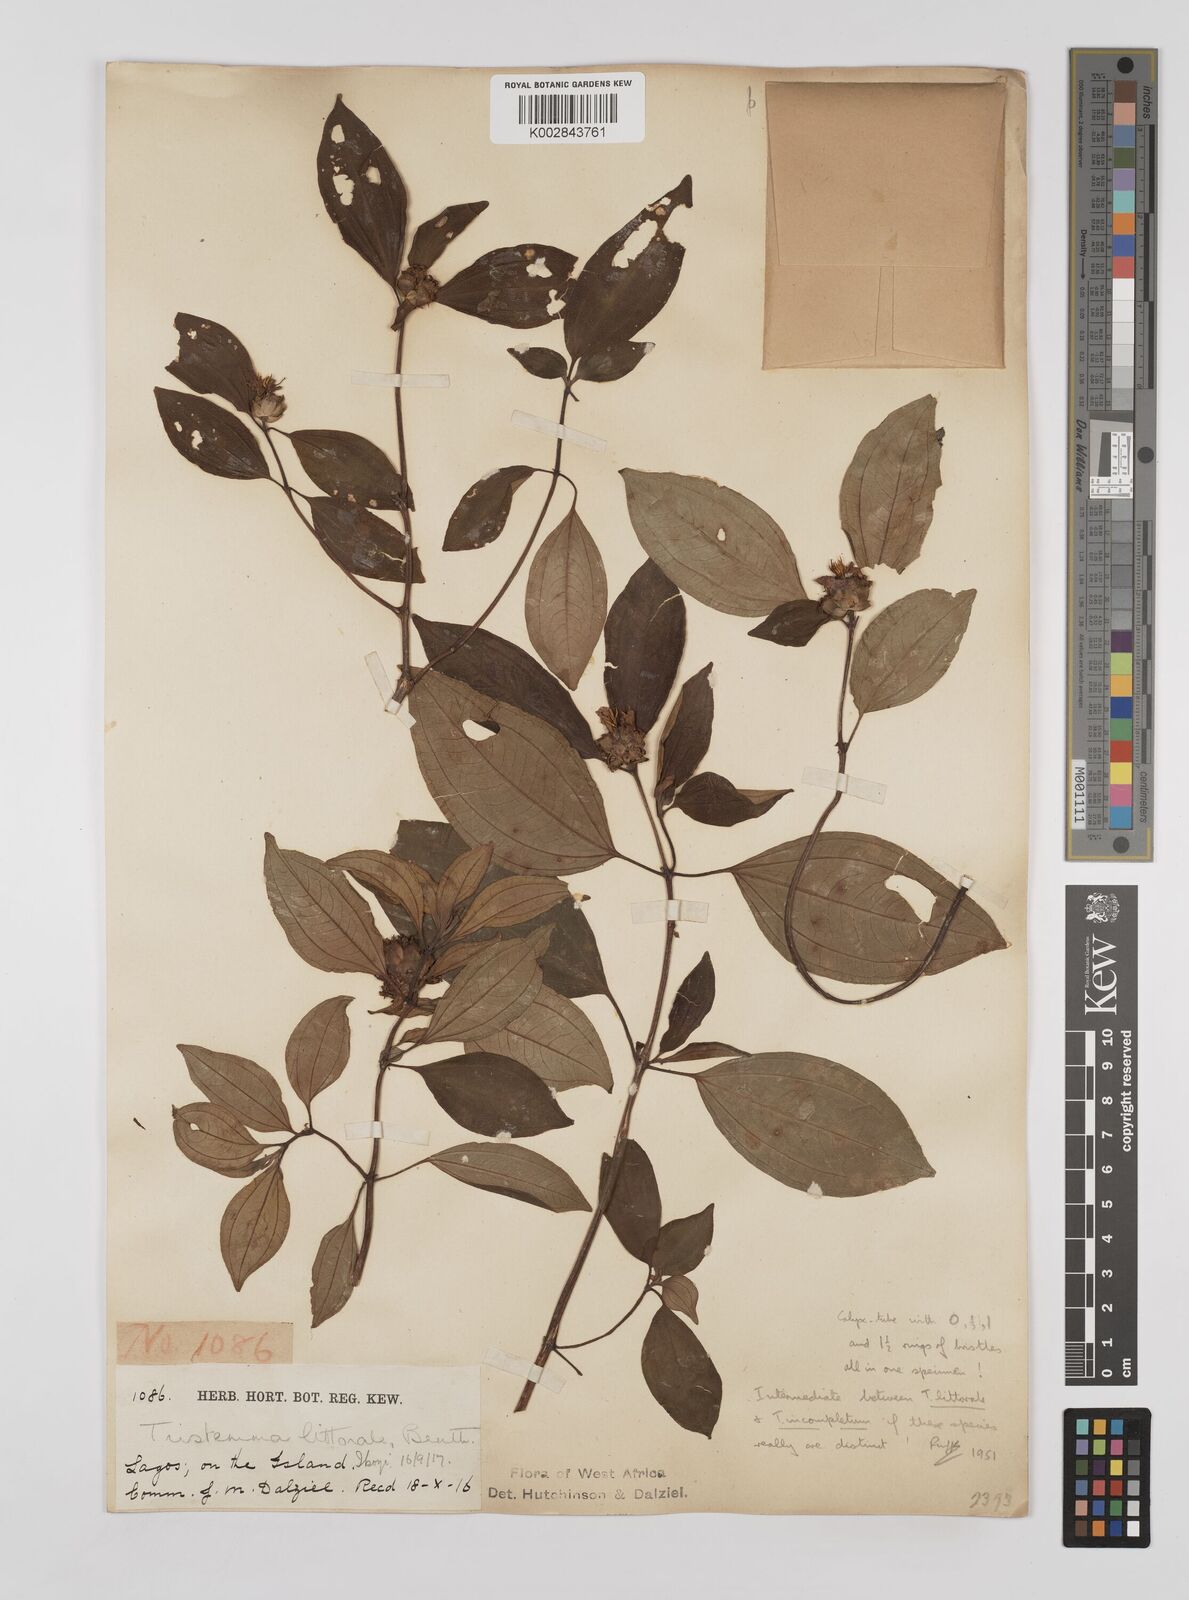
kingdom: Plantae
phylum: Tracheophyta
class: Magnoliopsida
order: Myrtales
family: Melastomataceae
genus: Tristemma
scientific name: Tristemma mauritianum
